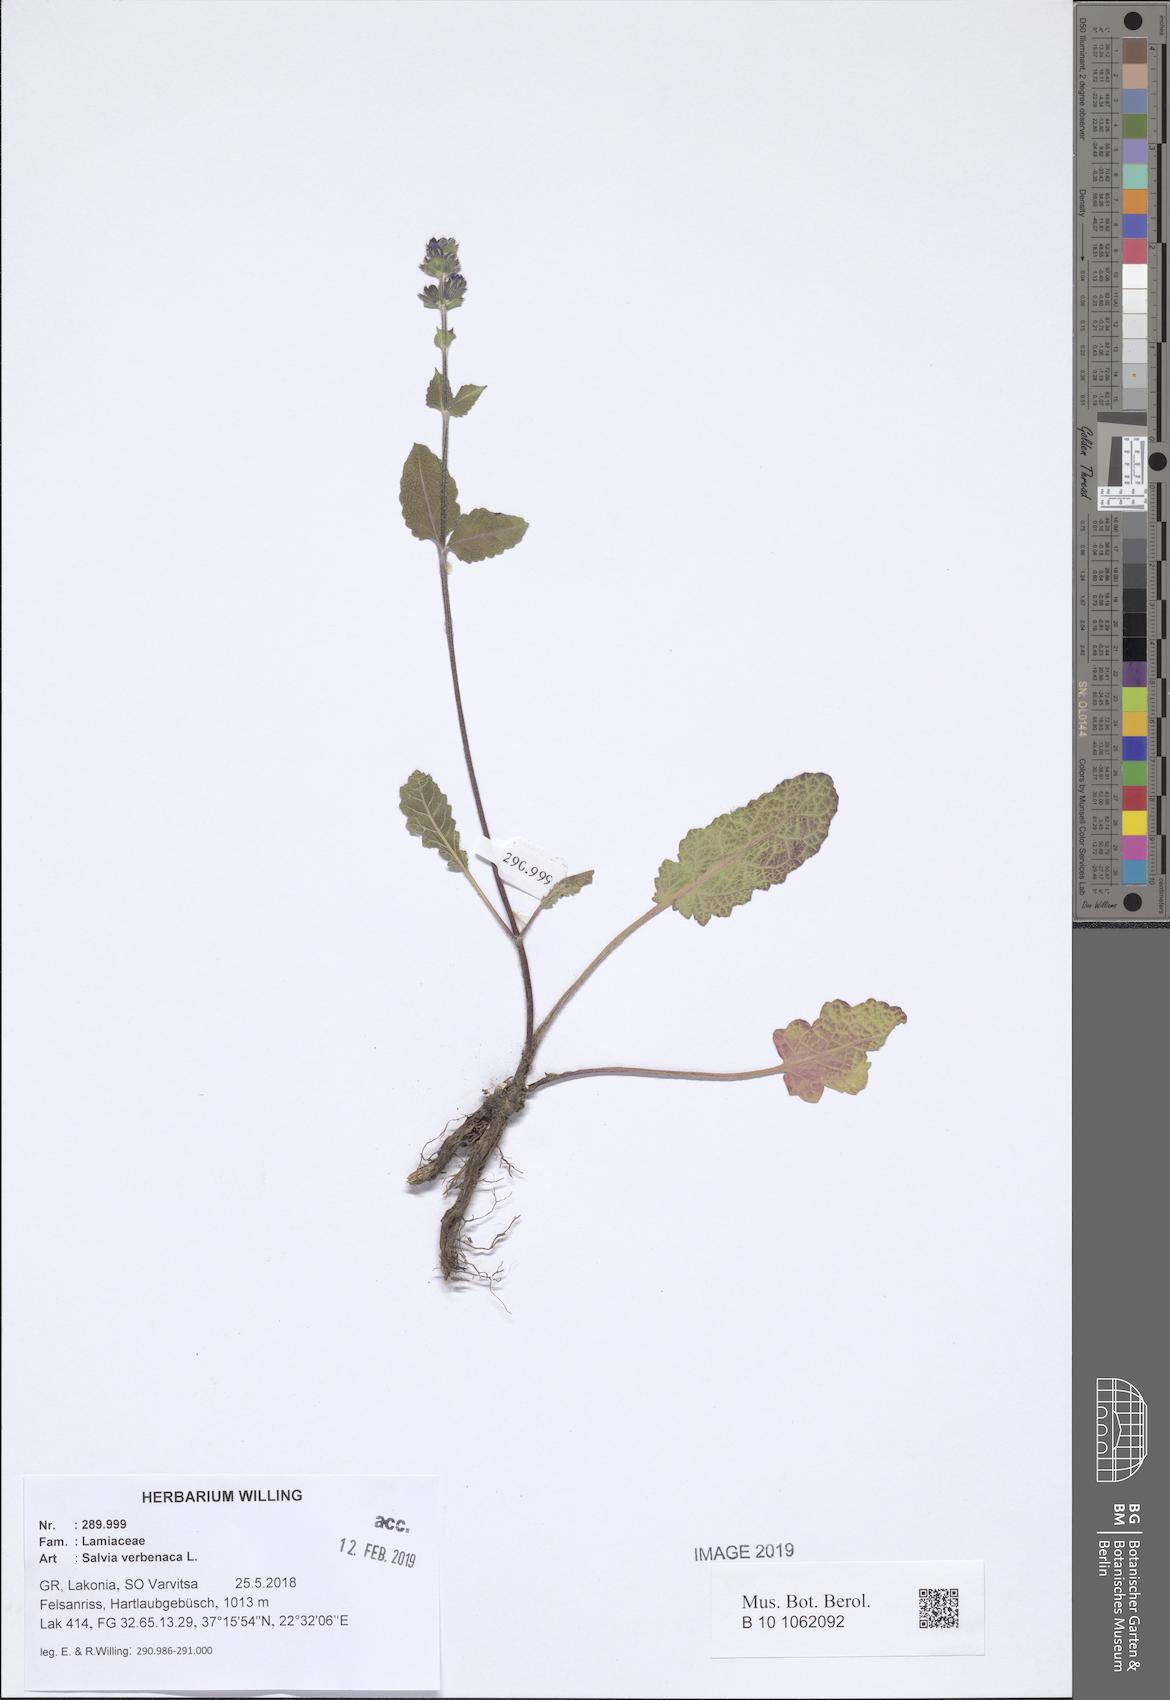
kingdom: Plantae
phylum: Tracheophyta
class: Magnoliopsida
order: Lamiales
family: Lamiaceae
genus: Salvia
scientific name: Salvia verbenaca
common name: Wild clary
